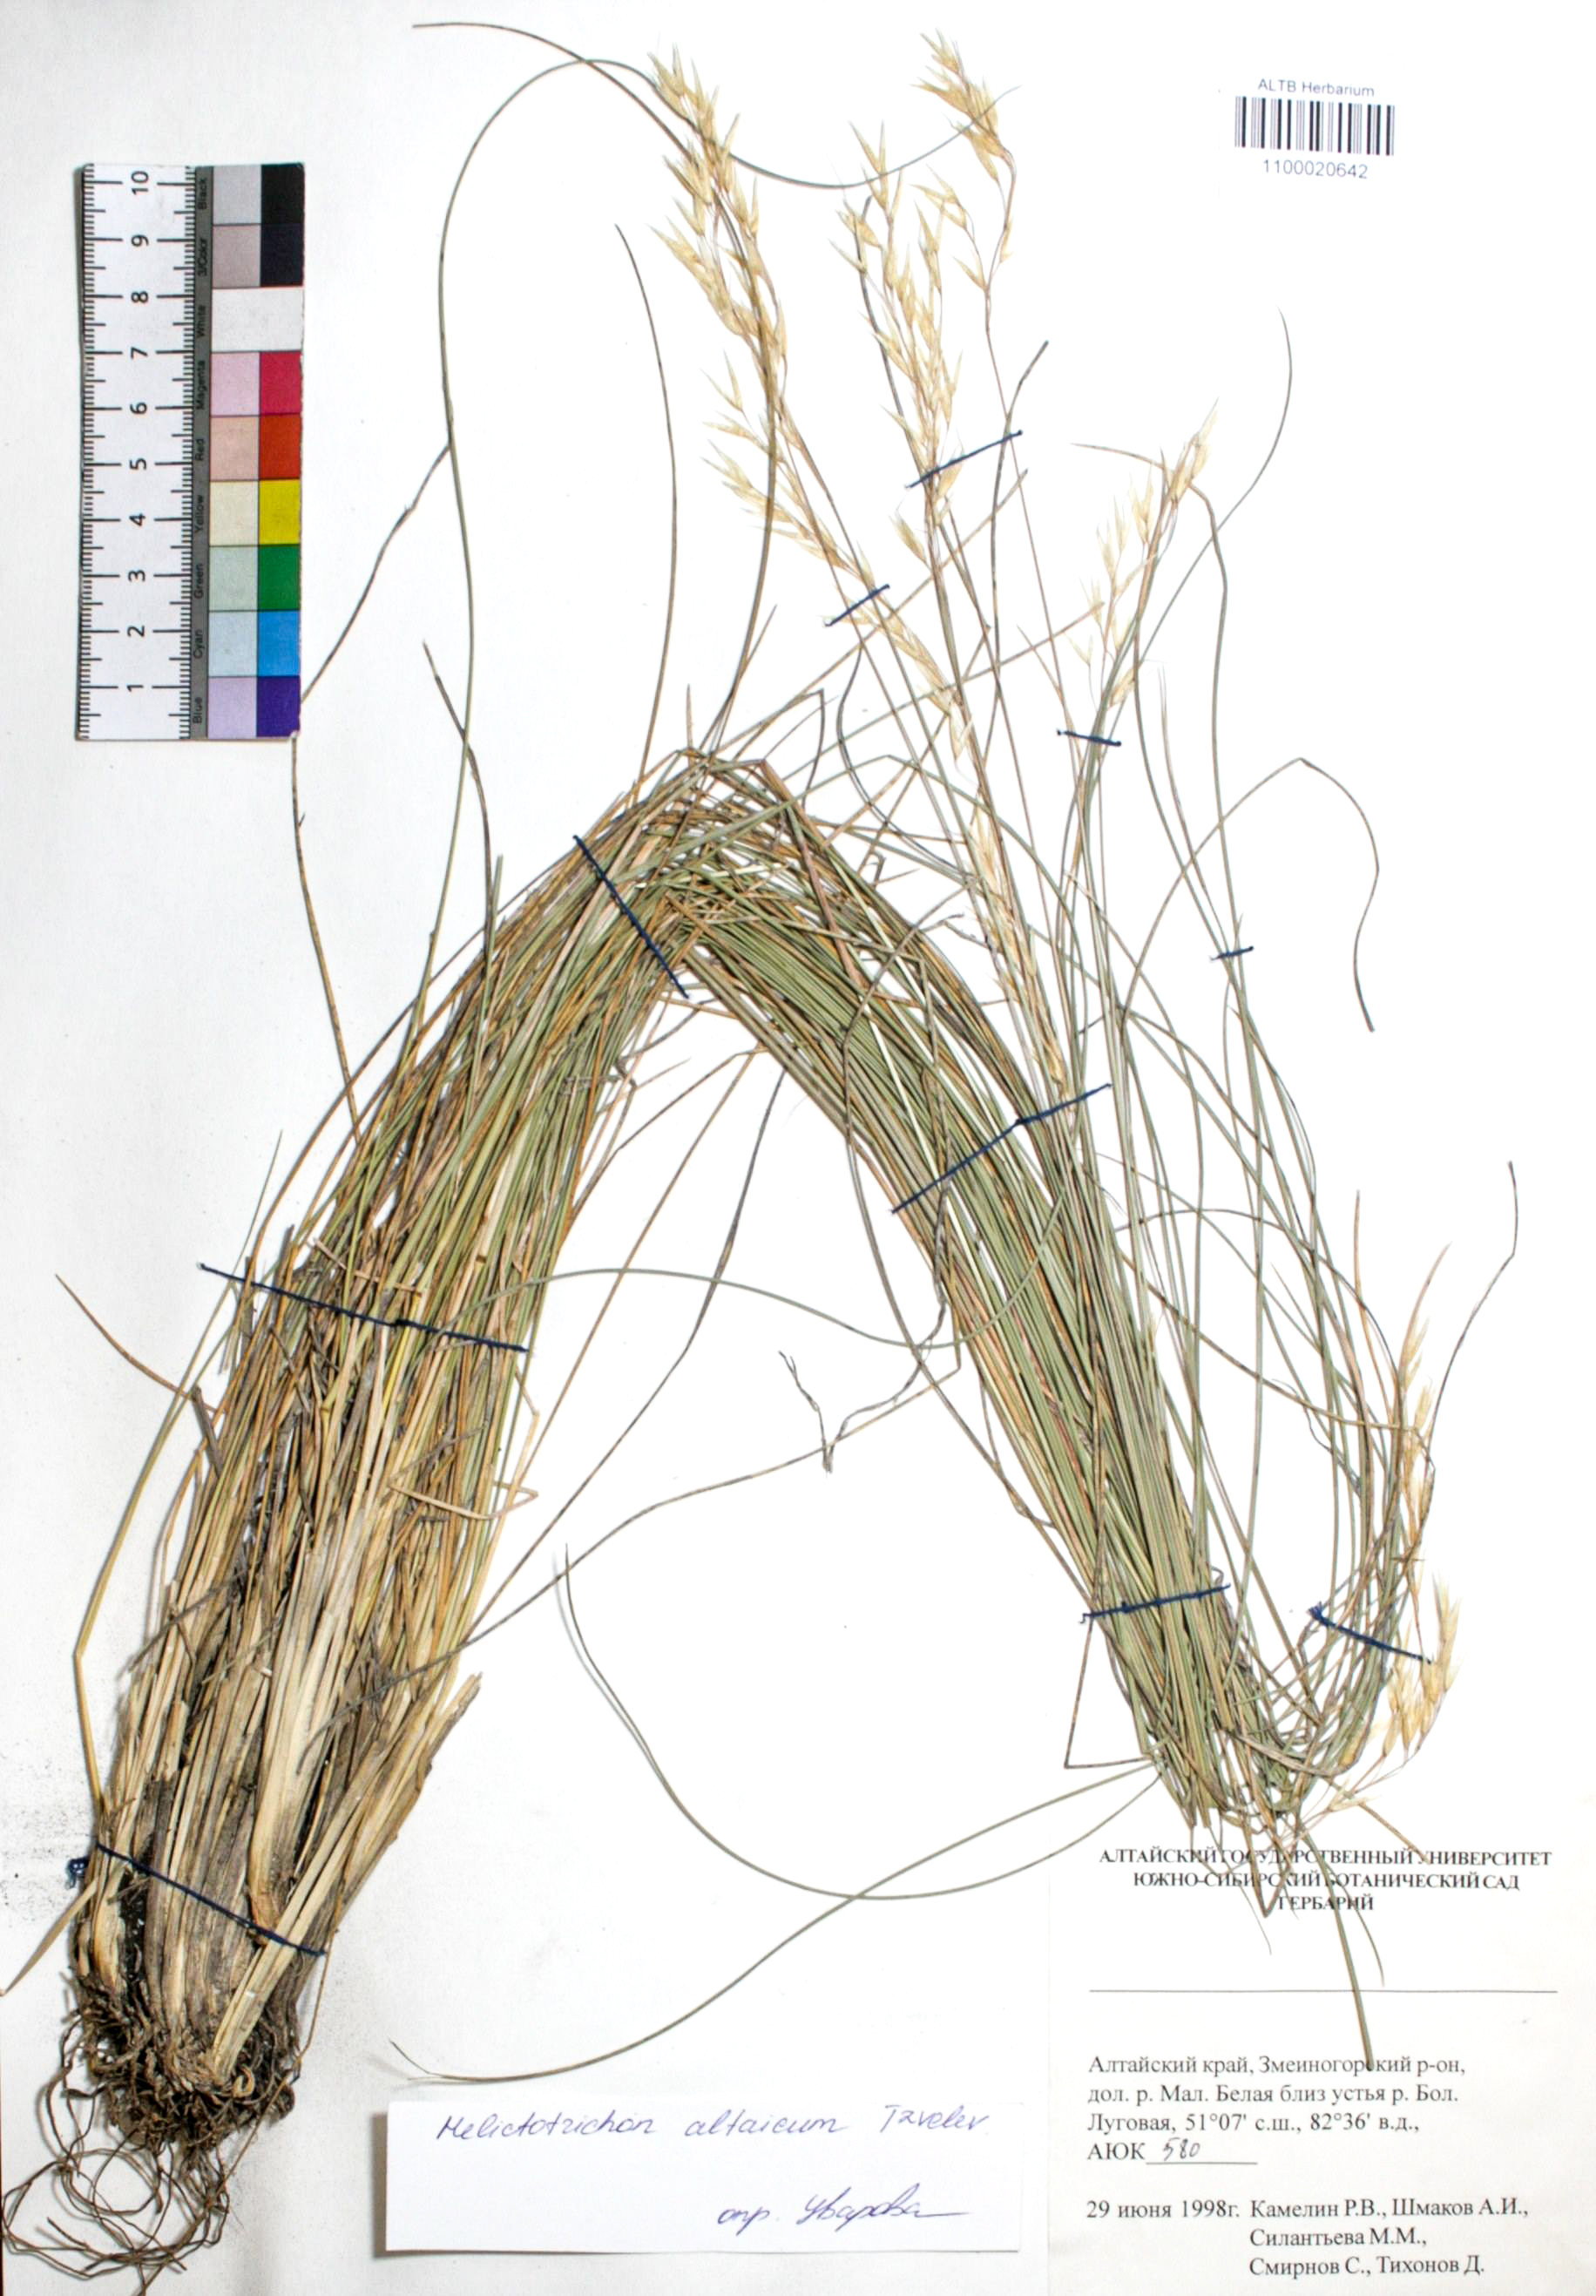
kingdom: Plantae
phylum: Tracheophyta
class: Liliopsida
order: Poales
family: Poaceae
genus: Helictotrichon
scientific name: Helictotrichon desertorum
